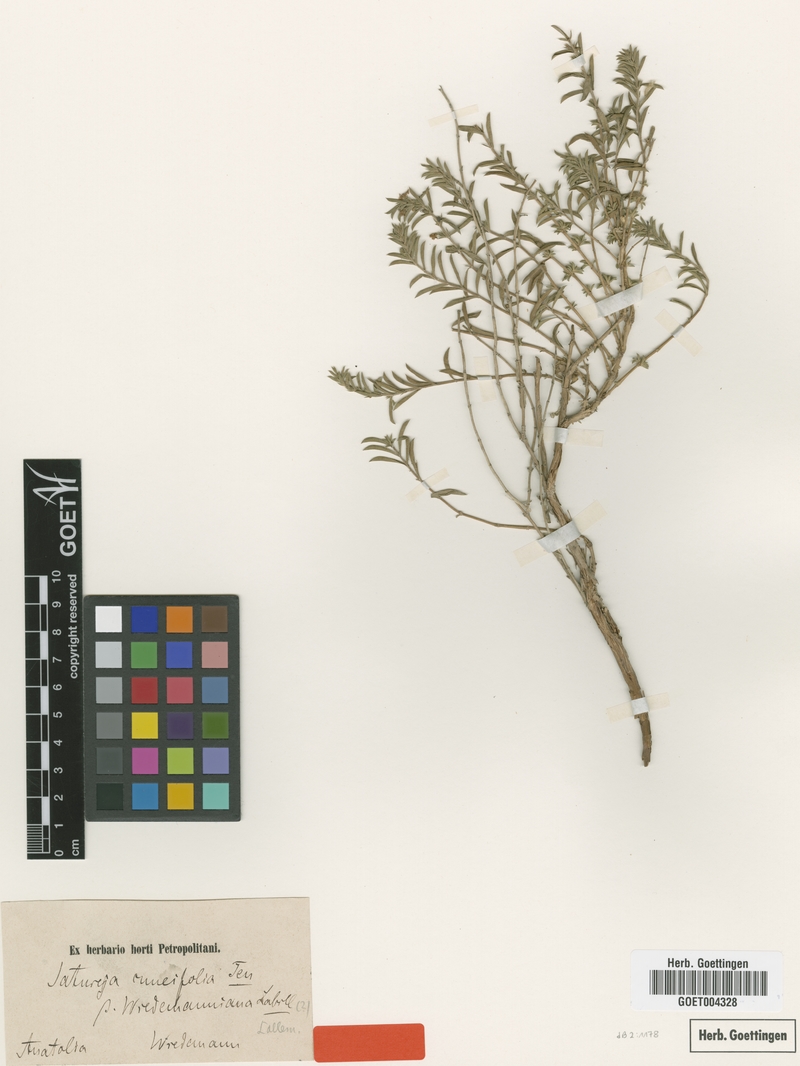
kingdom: Plantae
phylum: Tracheophyta
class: Magnoliopsida
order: Lamiales
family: Lamiaceae
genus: Satureja
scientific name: Satureja wiedemanniana
